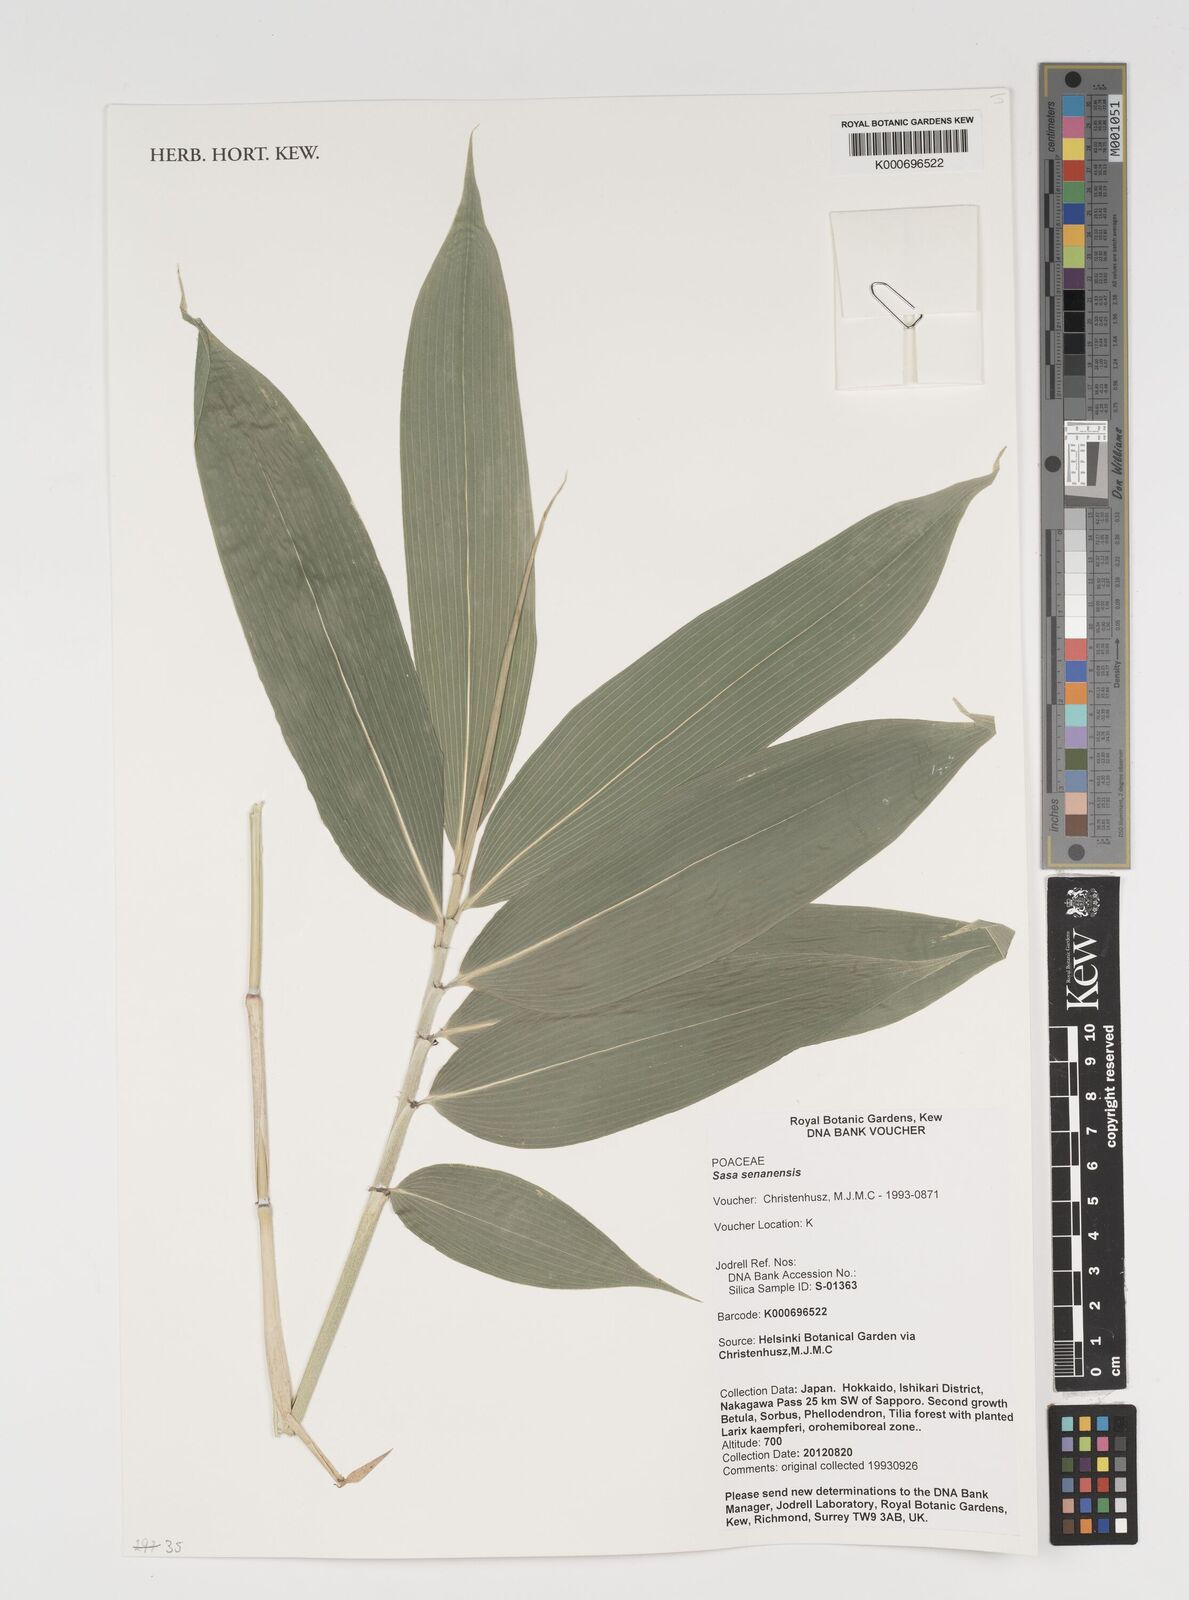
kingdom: Plantae
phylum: Tracheophyta
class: Liliopsida
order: Poales
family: Poaceae
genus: Sasa
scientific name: Sasa senanensis
